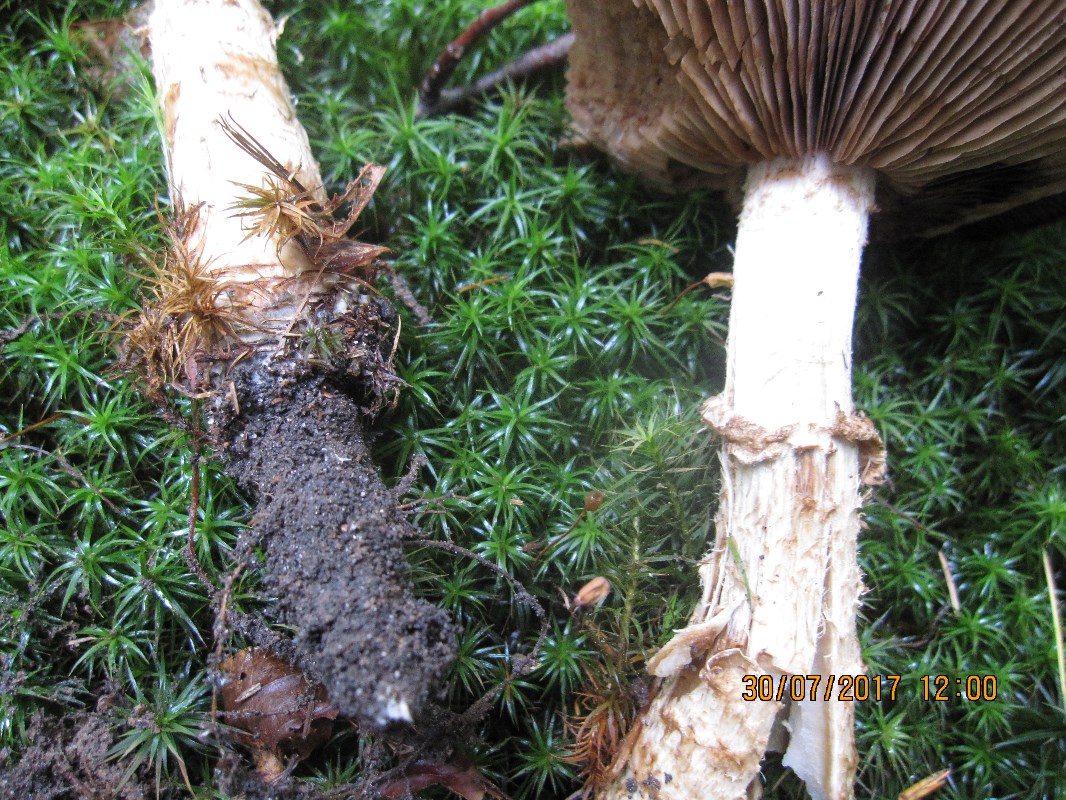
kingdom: Fungi
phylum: Basidiomycota
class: Agaricomycetes
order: Agaricales
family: Hymenogastraceae
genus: Hebeloma
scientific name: Hebeloma radicosum
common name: pælerods-tåreblad
